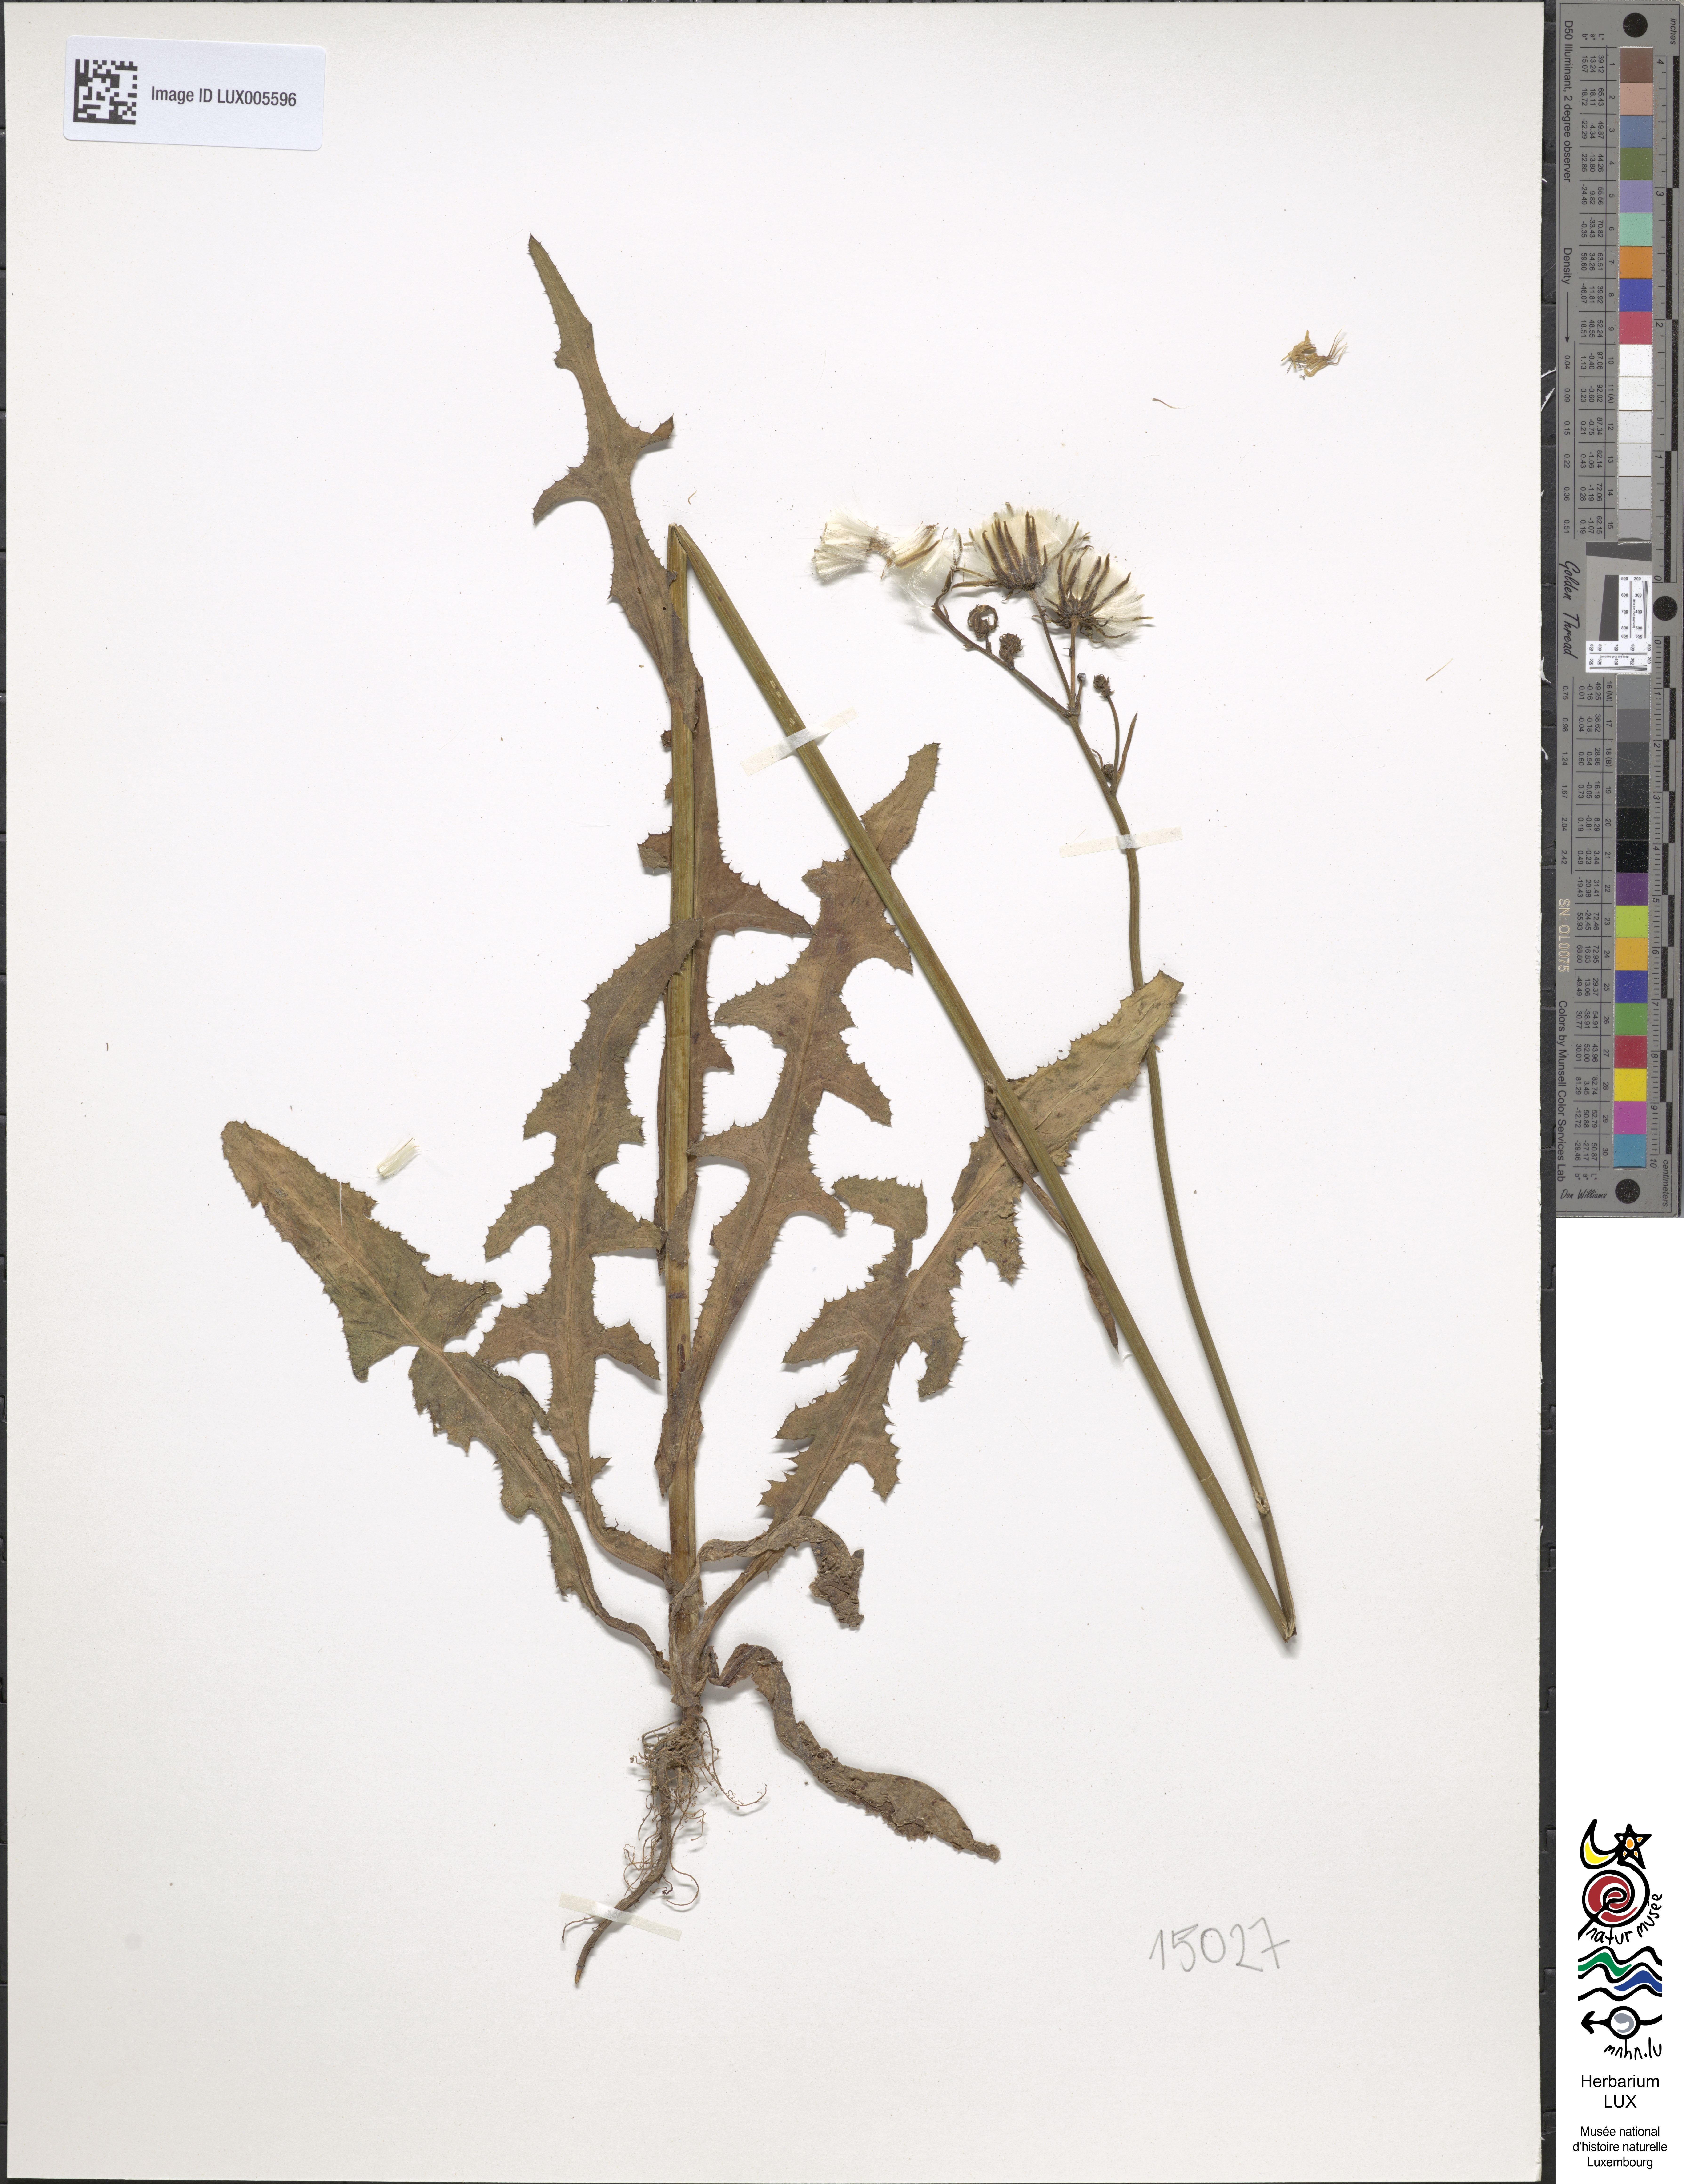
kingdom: Plantae
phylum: Tracheophyta
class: Magnoliopsida
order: Asterales
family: Asteraceae
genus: Sonchus
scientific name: Sonchus maritimus
